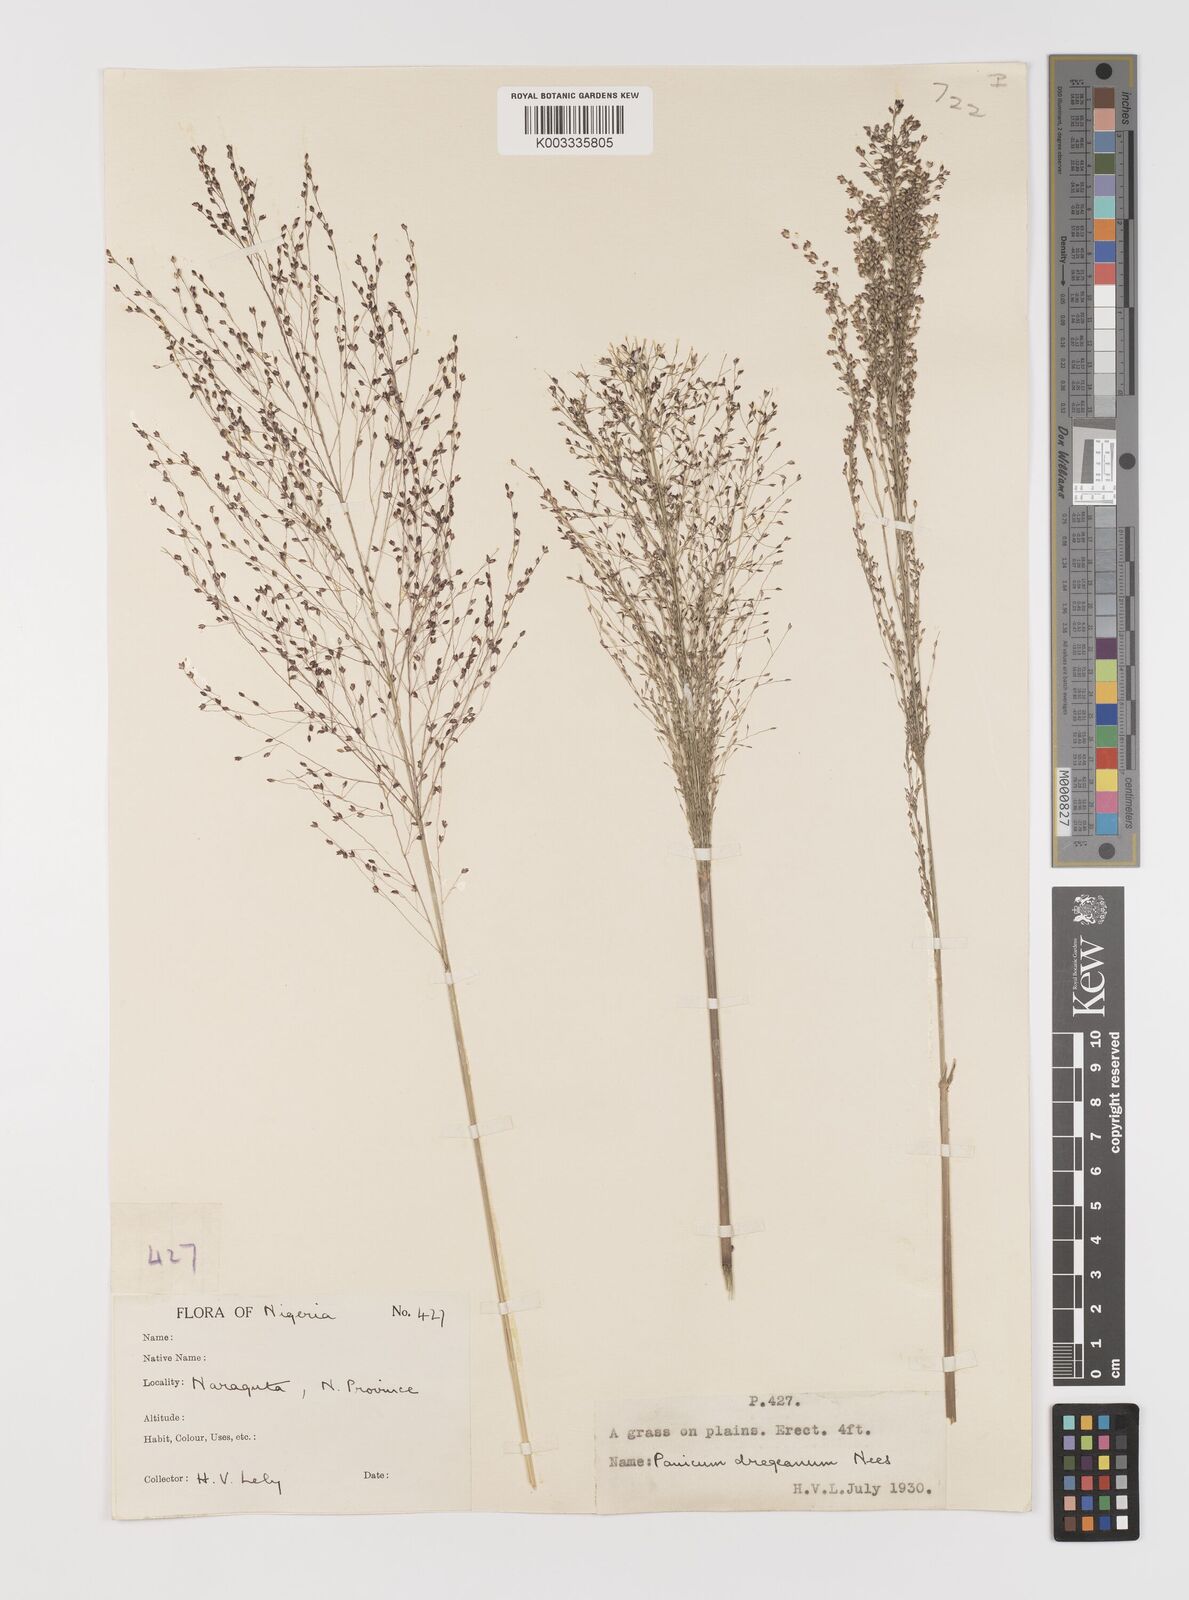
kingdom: Plantae
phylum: Tracheophyta
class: Liliopsida
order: Poales
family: Poaceae
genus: Panicum
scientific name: Panicum fluviicola
